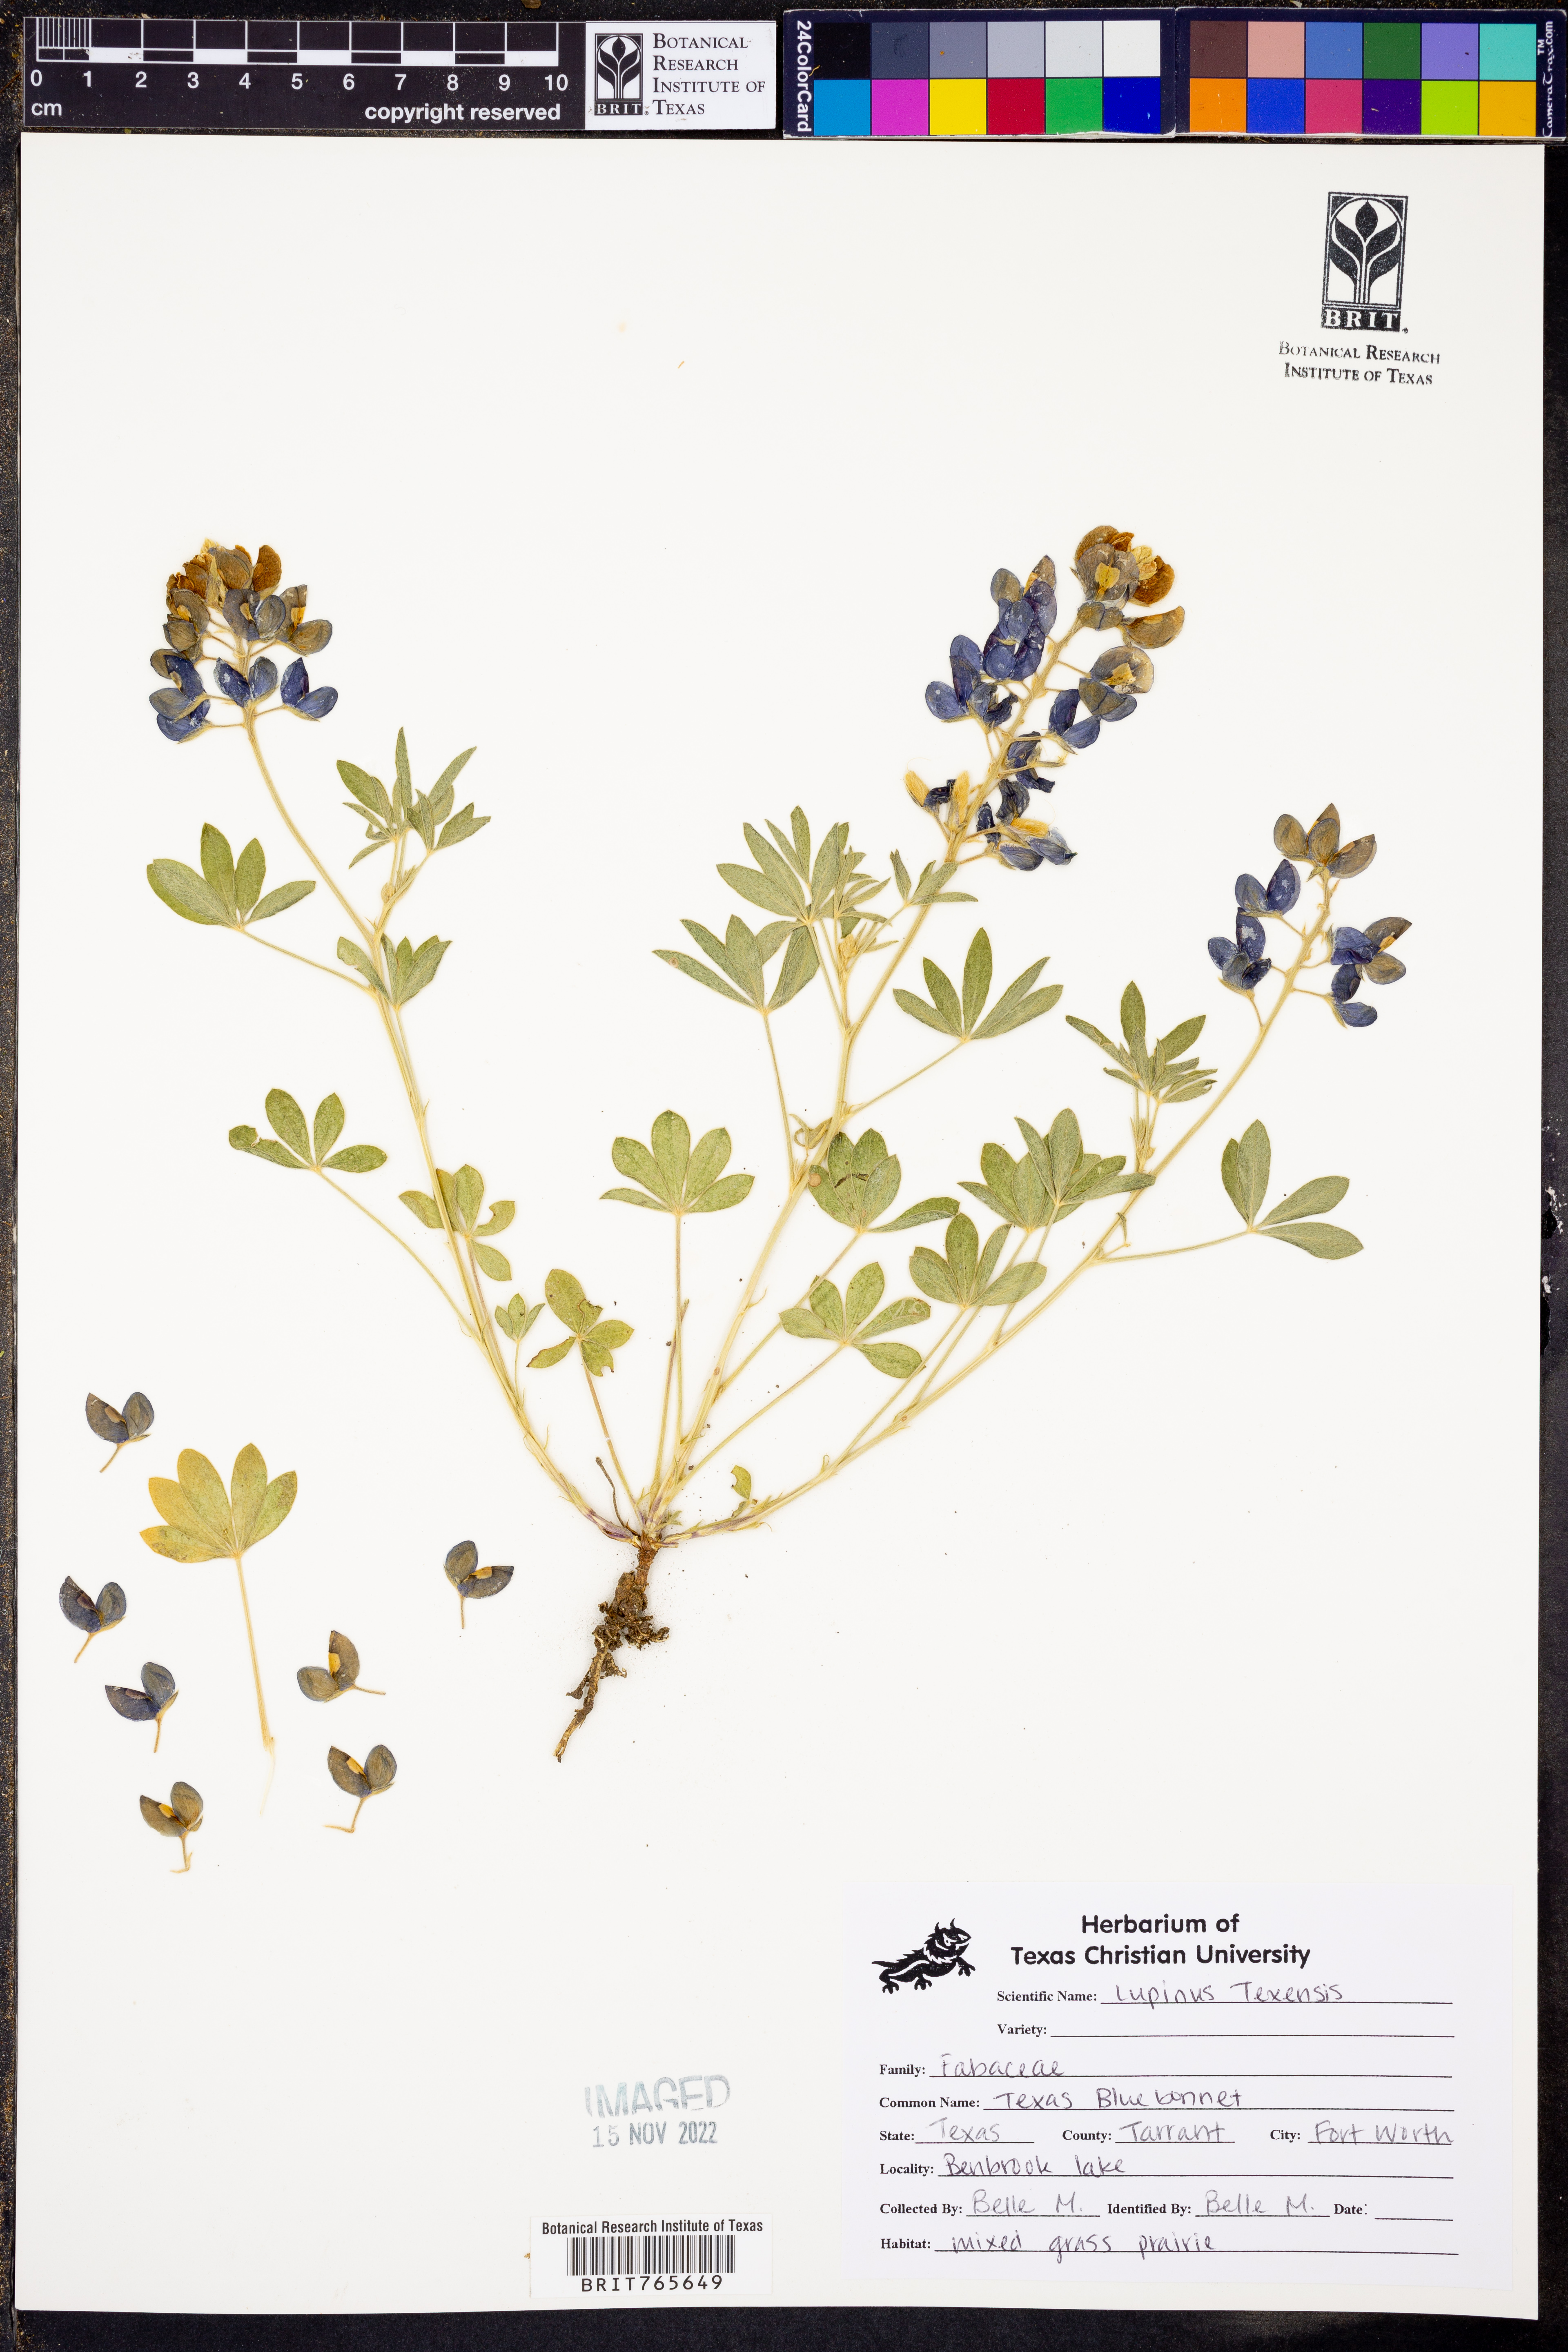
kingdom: Plantae
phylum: Tracheophyta
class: Magnoliopsida
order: Fabales
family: Fabaceae
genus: Lupinus
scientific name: Lupinus texensis
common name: Texas bluebonnet
